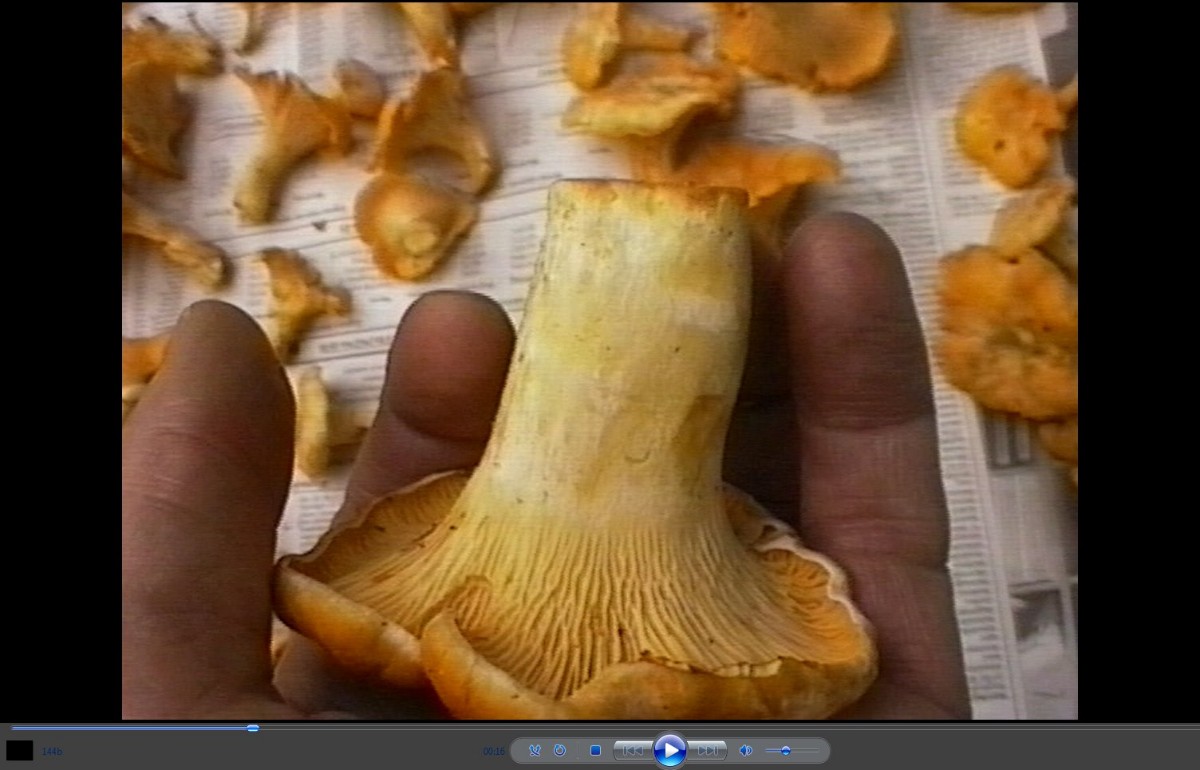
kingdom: Fungi
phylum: Basidiomycota
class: Agaricomycetes
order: Cantharellales
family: Hydnaceae
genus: Cantharellus
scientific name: Cantharellus cibarius
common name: almindelig kantarel
